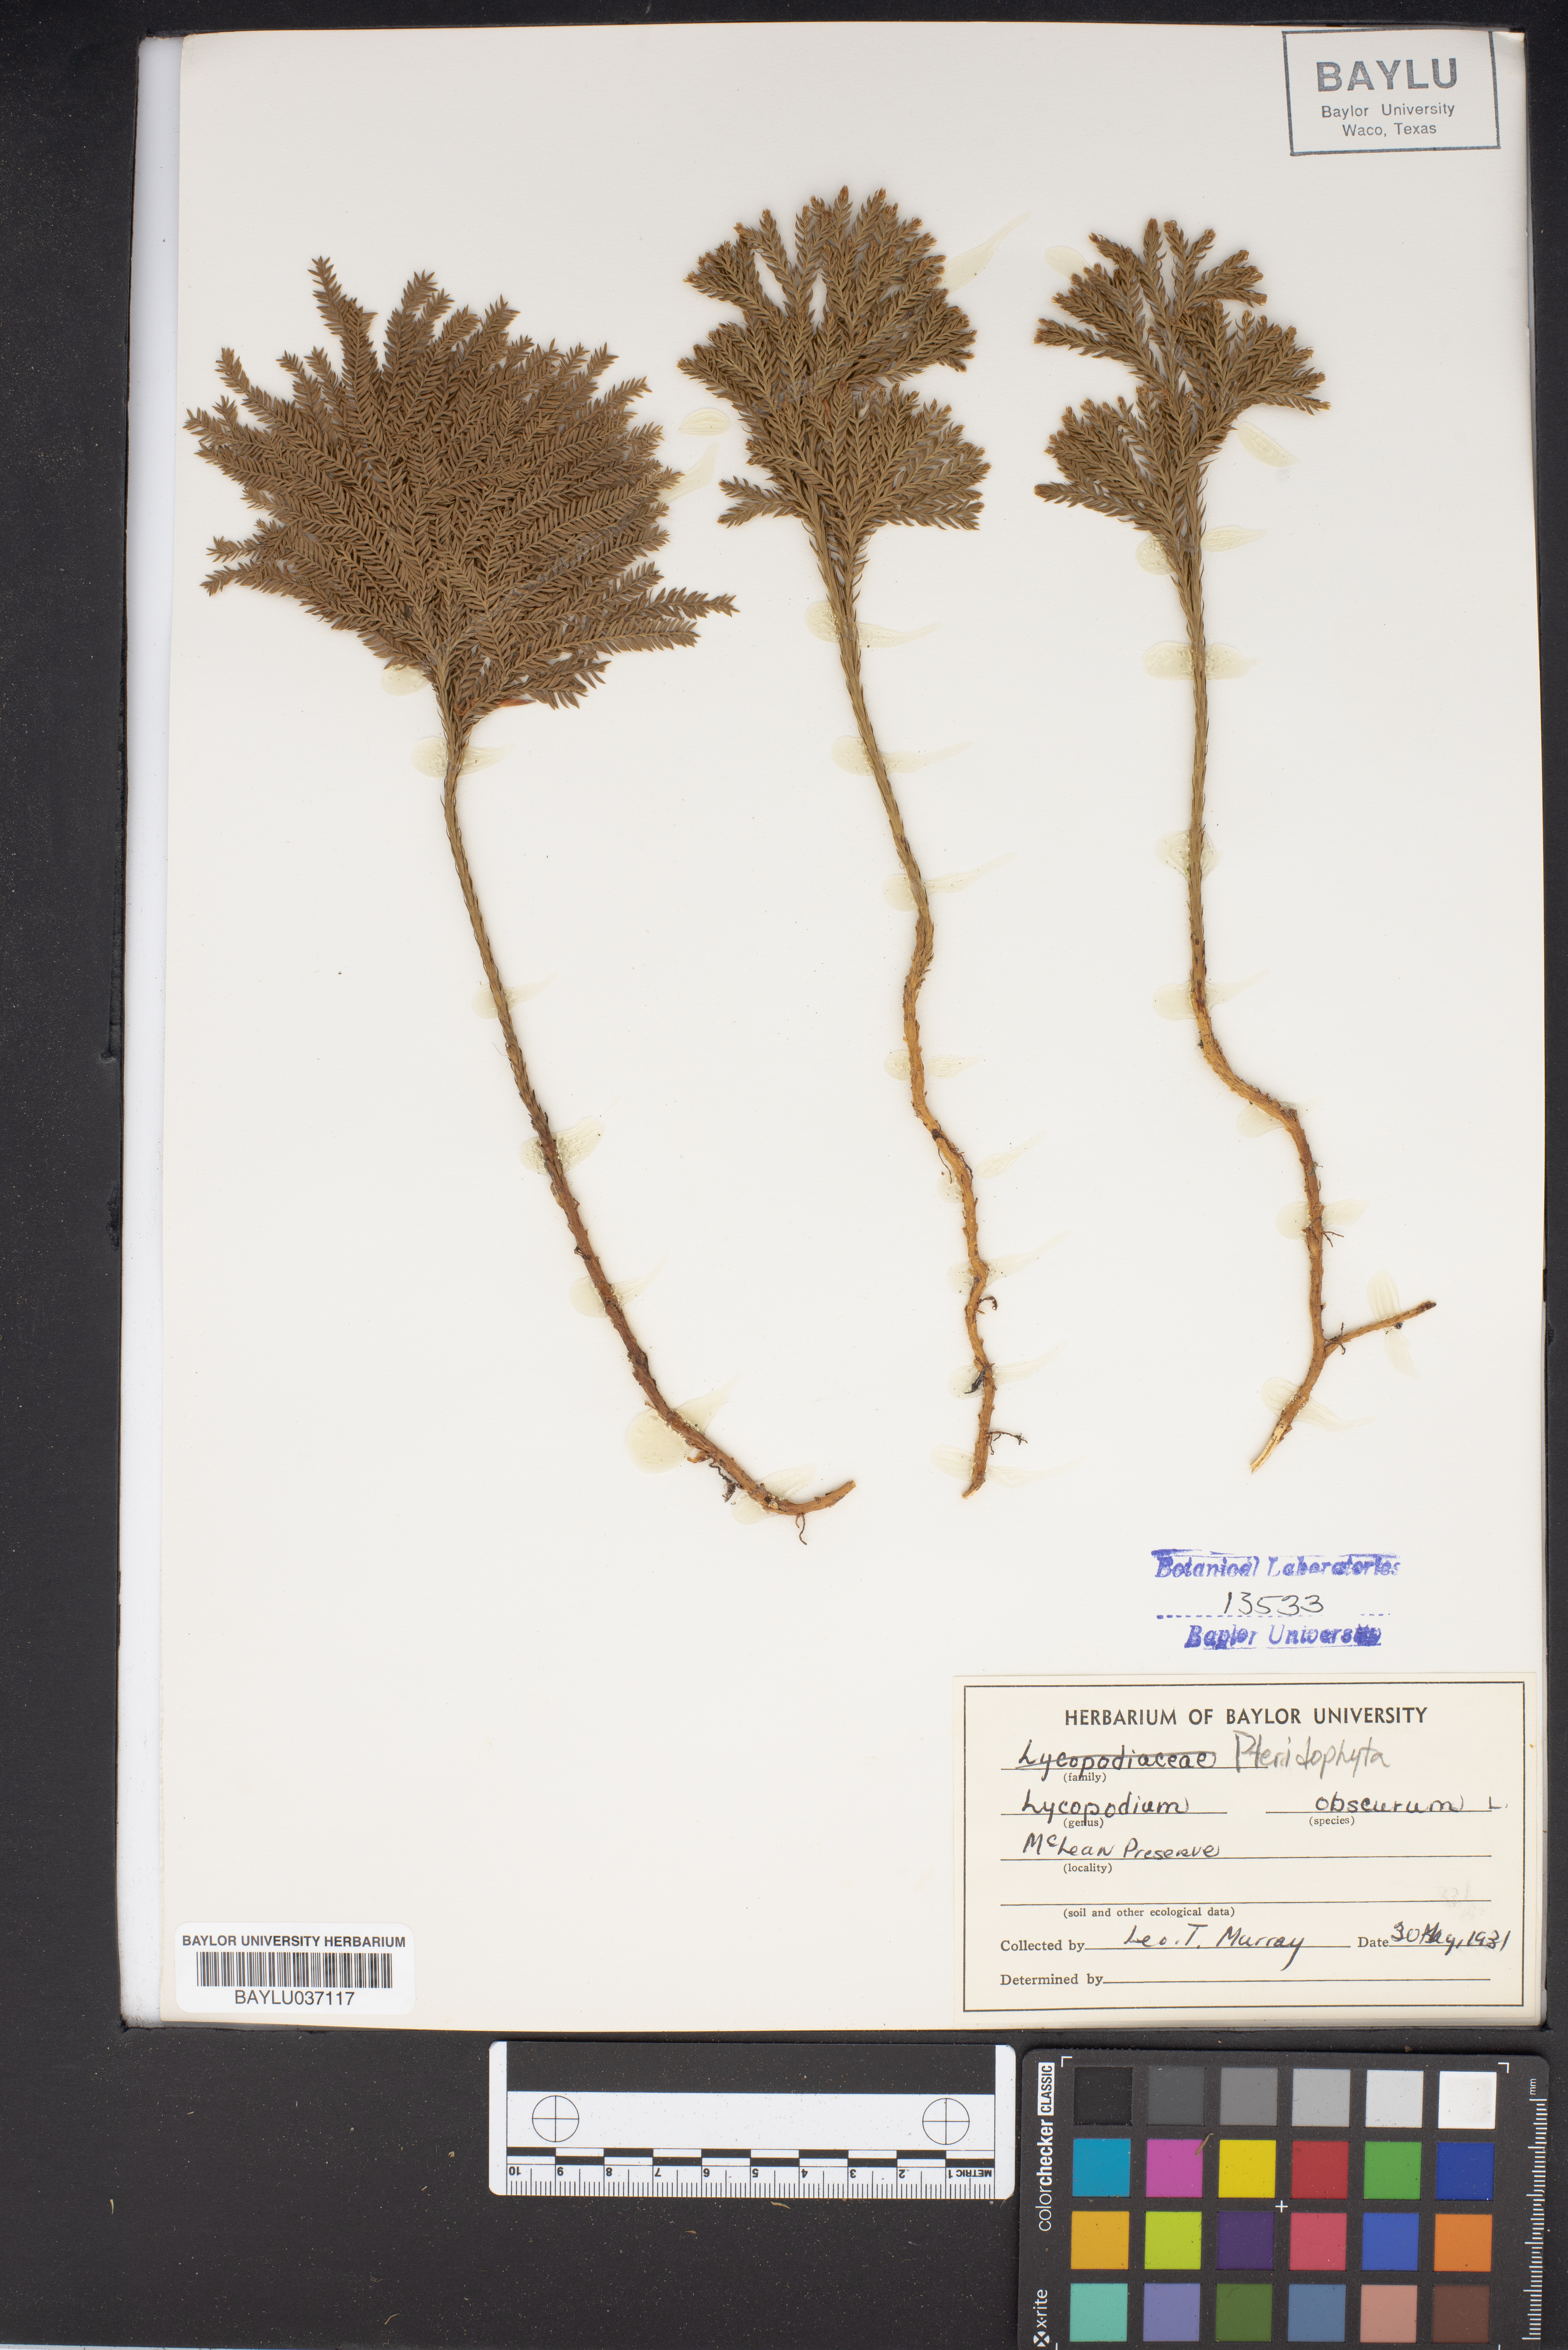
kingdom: Plantae
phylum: Tracheophyta
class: Lycopodiopsida
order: Lycopodiales
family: Lycopodiaceae
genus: Dendrolycopodium
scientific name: Dendrolycopodium obscurum
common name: Common ground-pine
